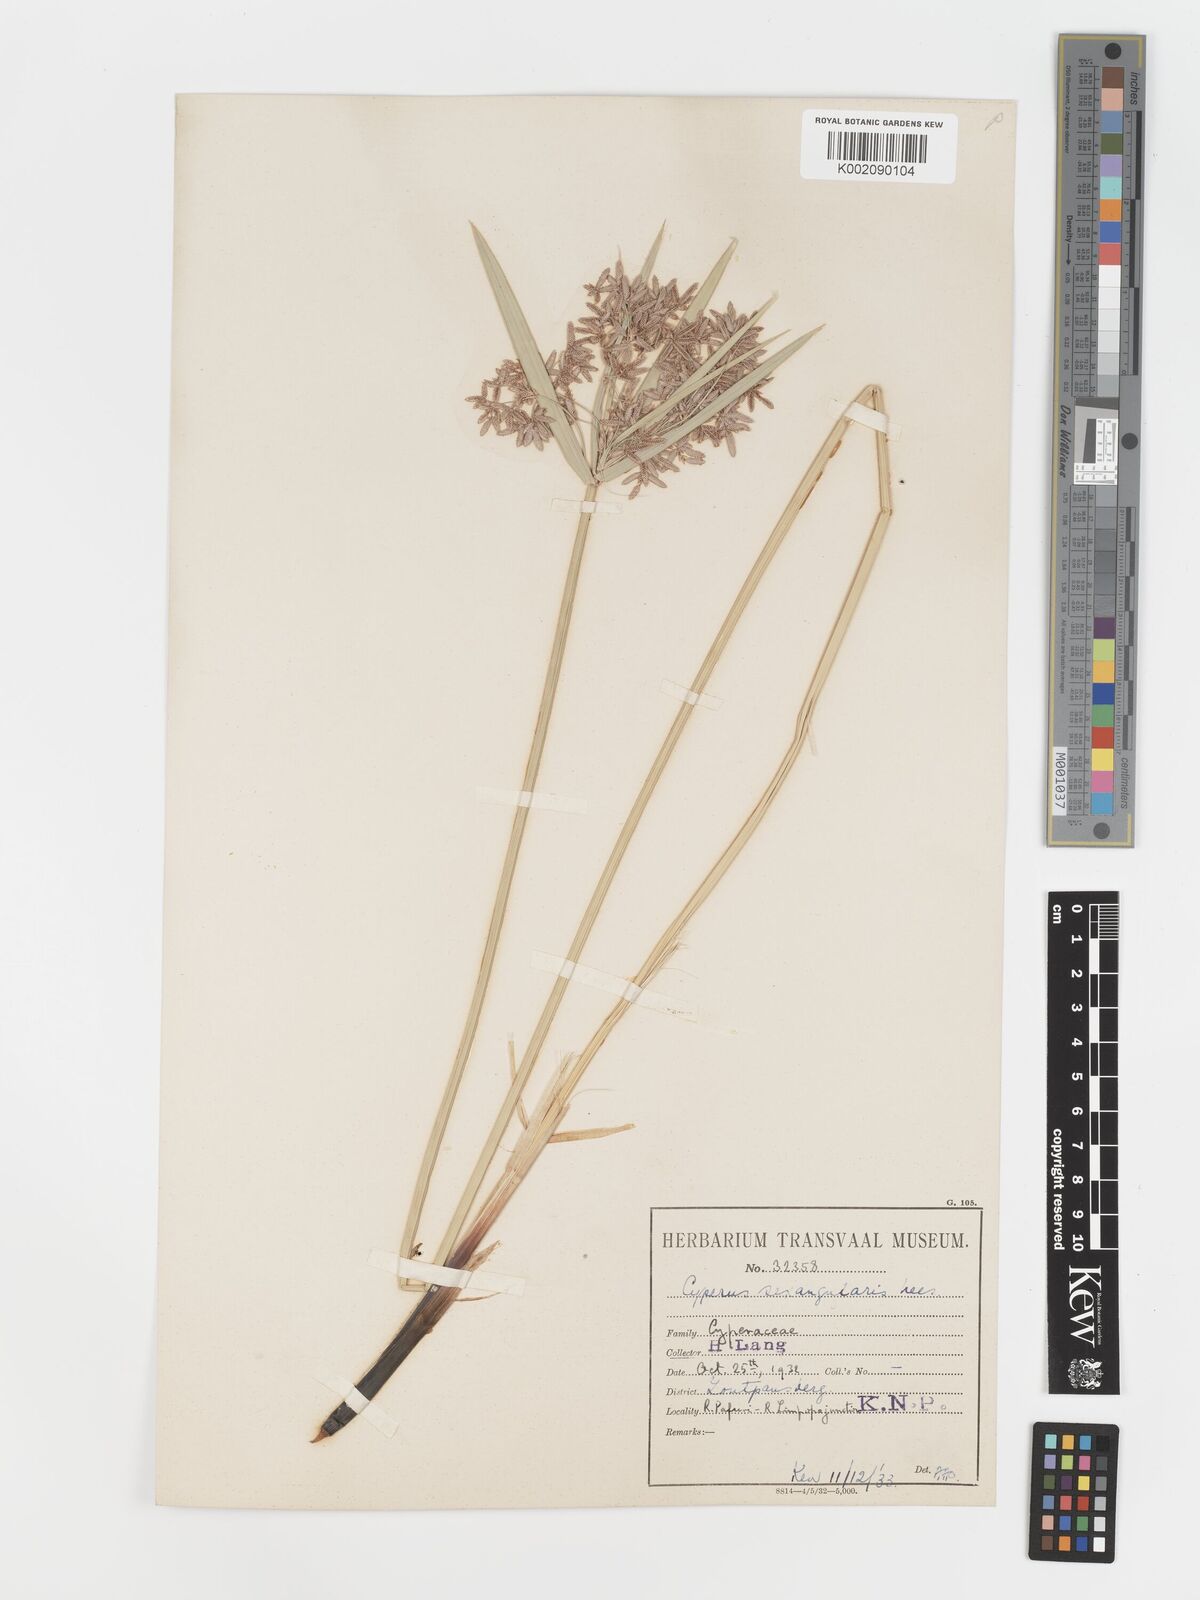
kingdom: Plantae
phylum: Tracheophyta
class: Liliopsida
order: Poales
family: Cyperaceae
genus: Cyperus
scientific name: Cyperus sexangularis
